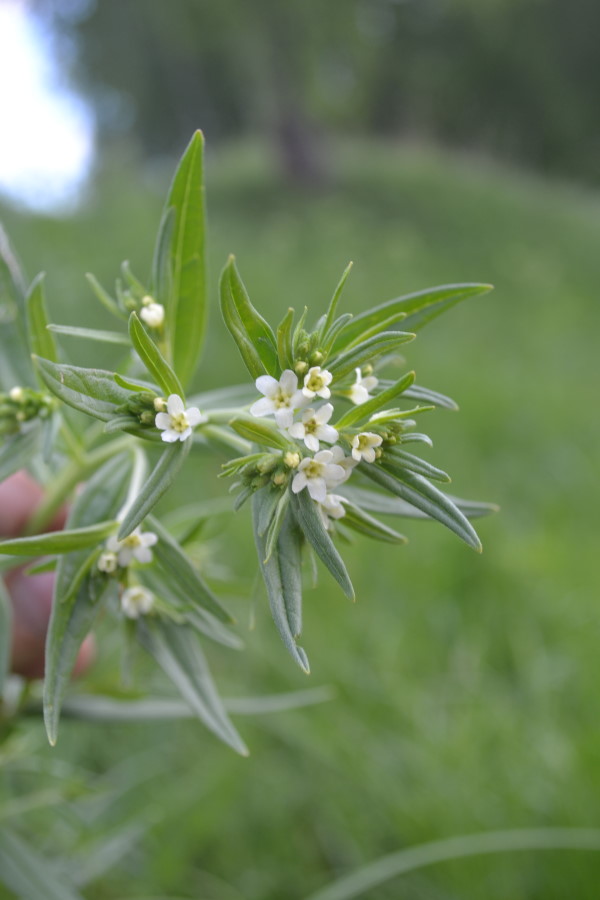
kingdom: Plantae
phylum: Tracheophyta
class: Magnoliopsida
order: Boraginales
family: Boraginaceae
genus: Lithospermum
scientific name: Lithospermum officinale
